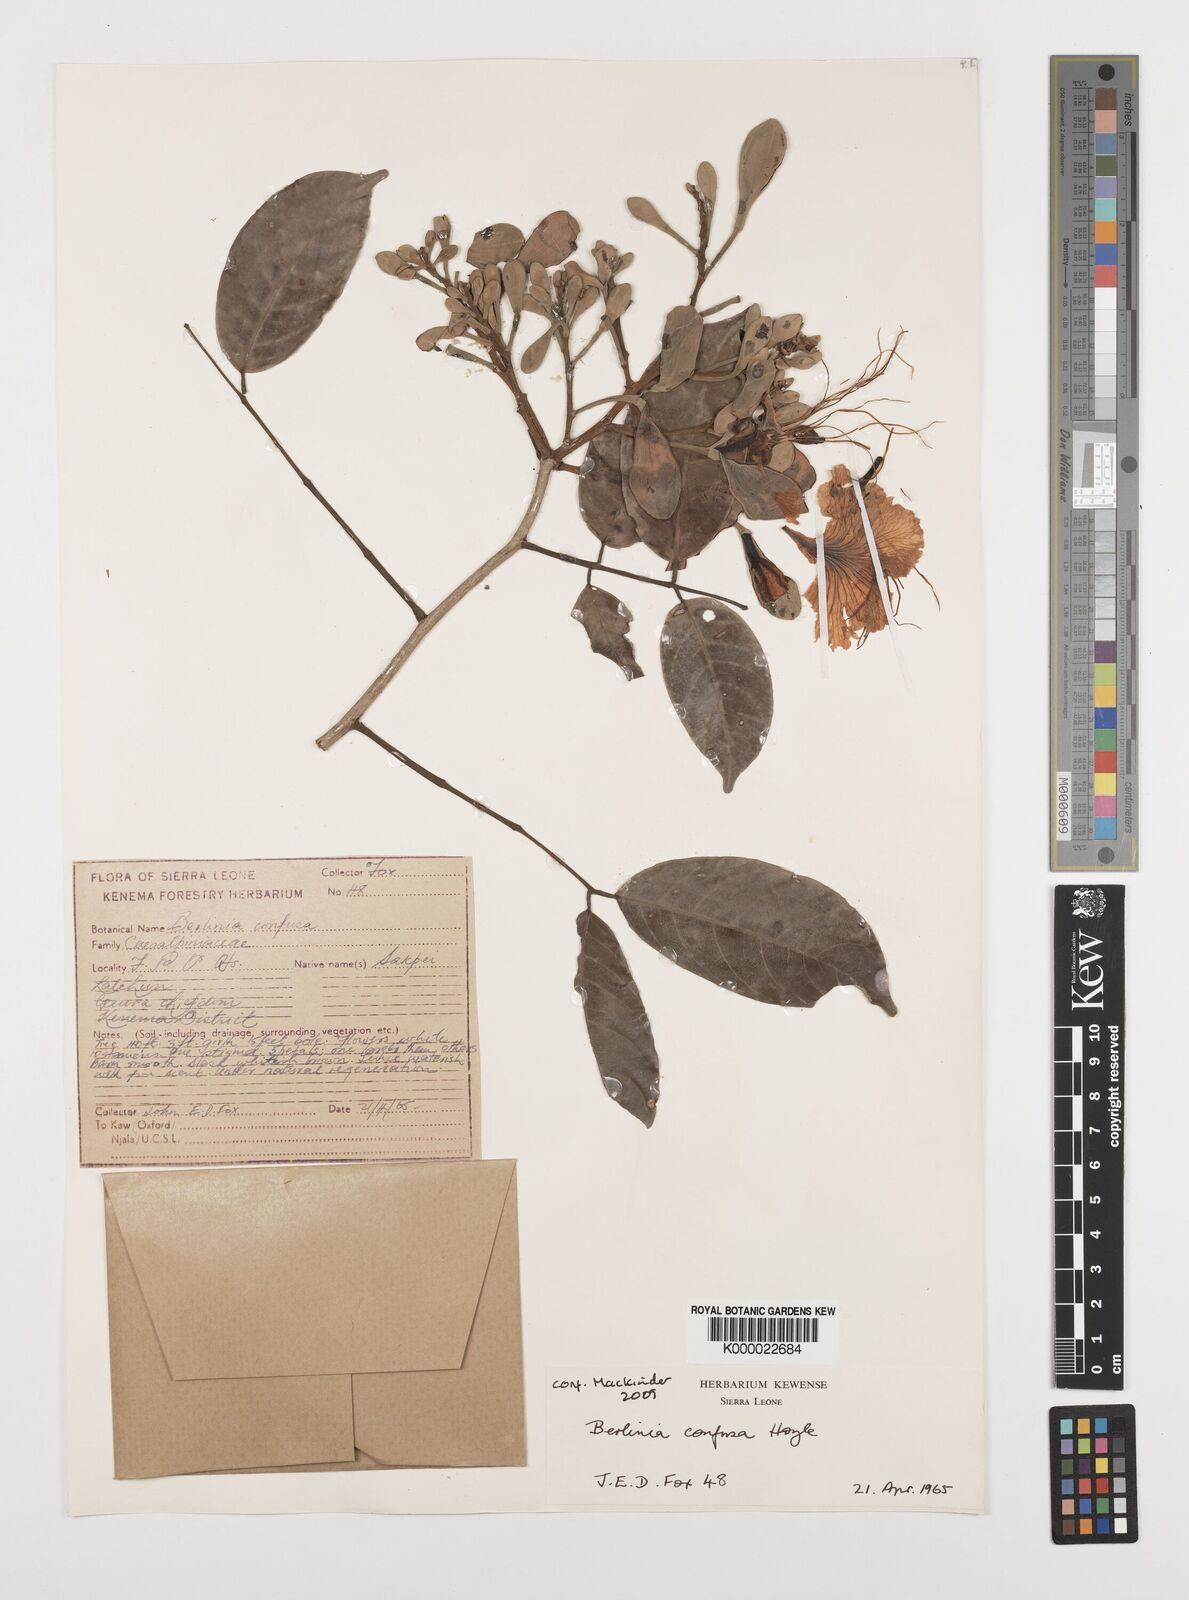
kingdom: Plantae
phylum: Tracheophyta
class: Magnoliopsida
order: Fabales
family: Fabaceae
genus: Berlinia
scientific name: Berlinia
